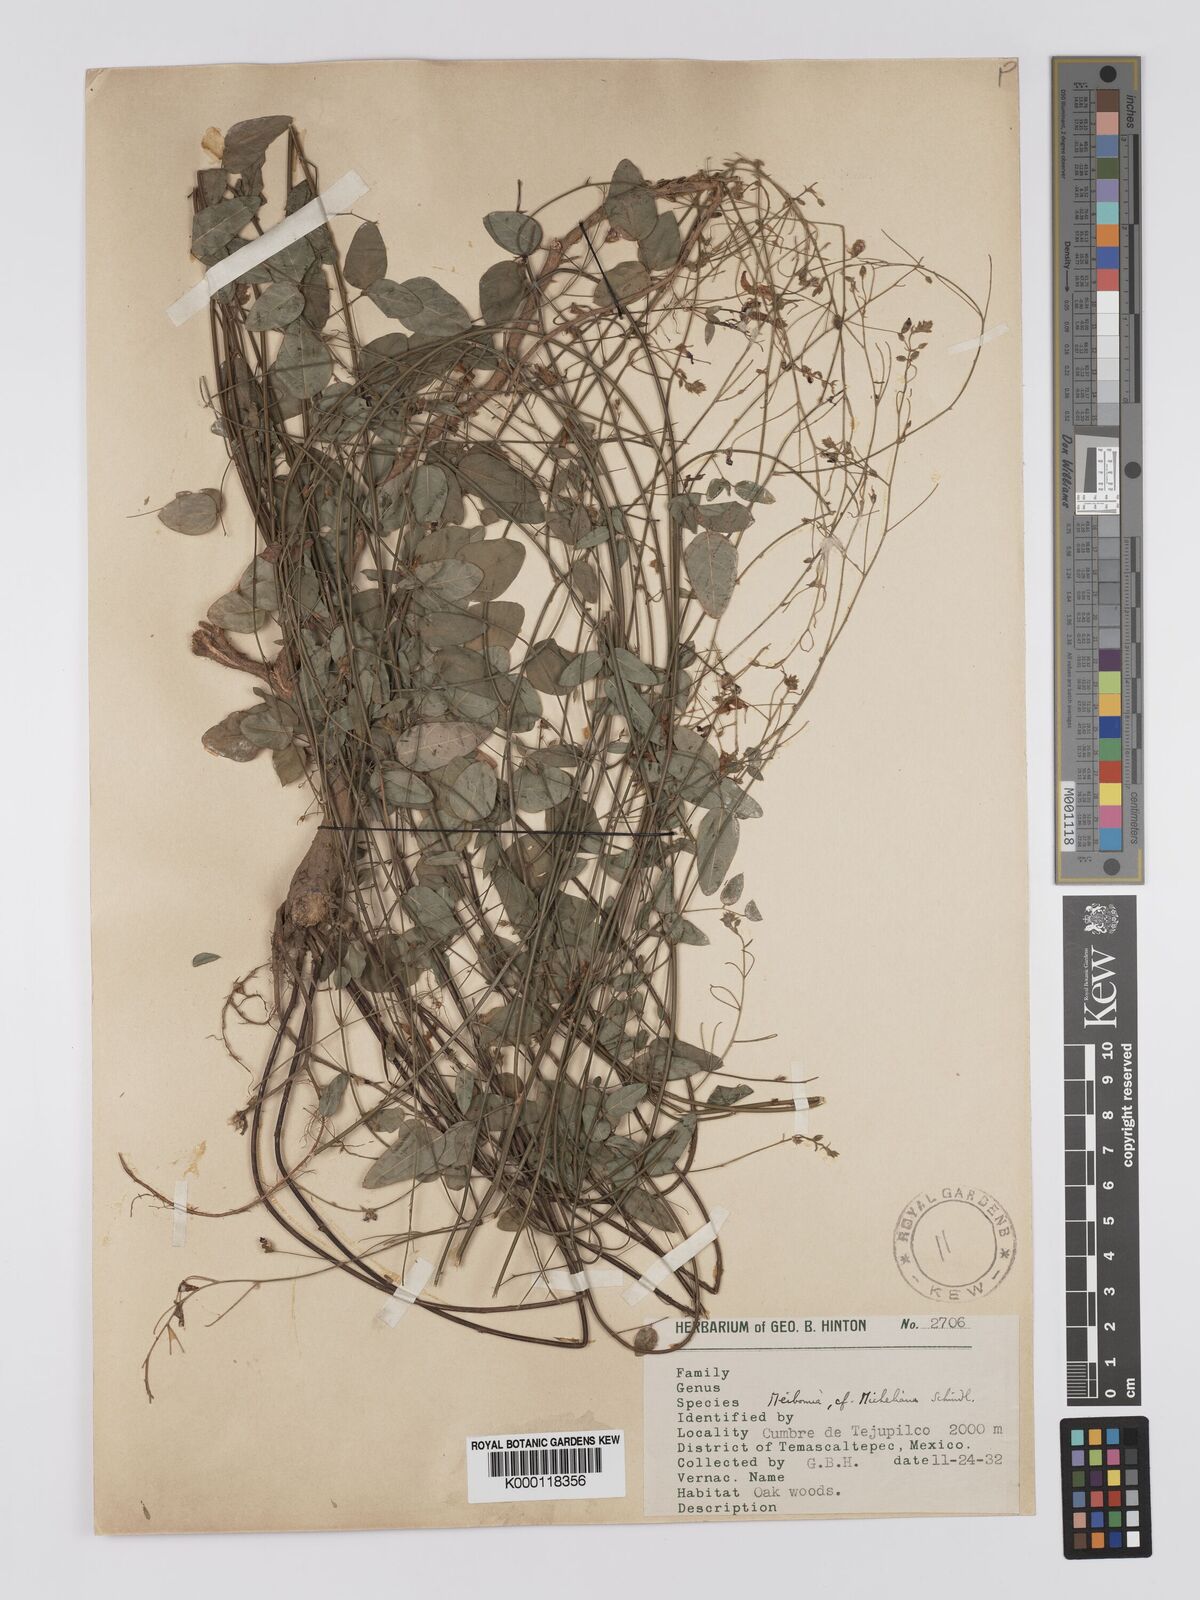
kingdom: Plantae
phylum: Tracheophyta
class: Magnoliopsida
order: Fabales
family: Fabaceae
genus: Desmodium
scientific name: Desmodium michelianum
